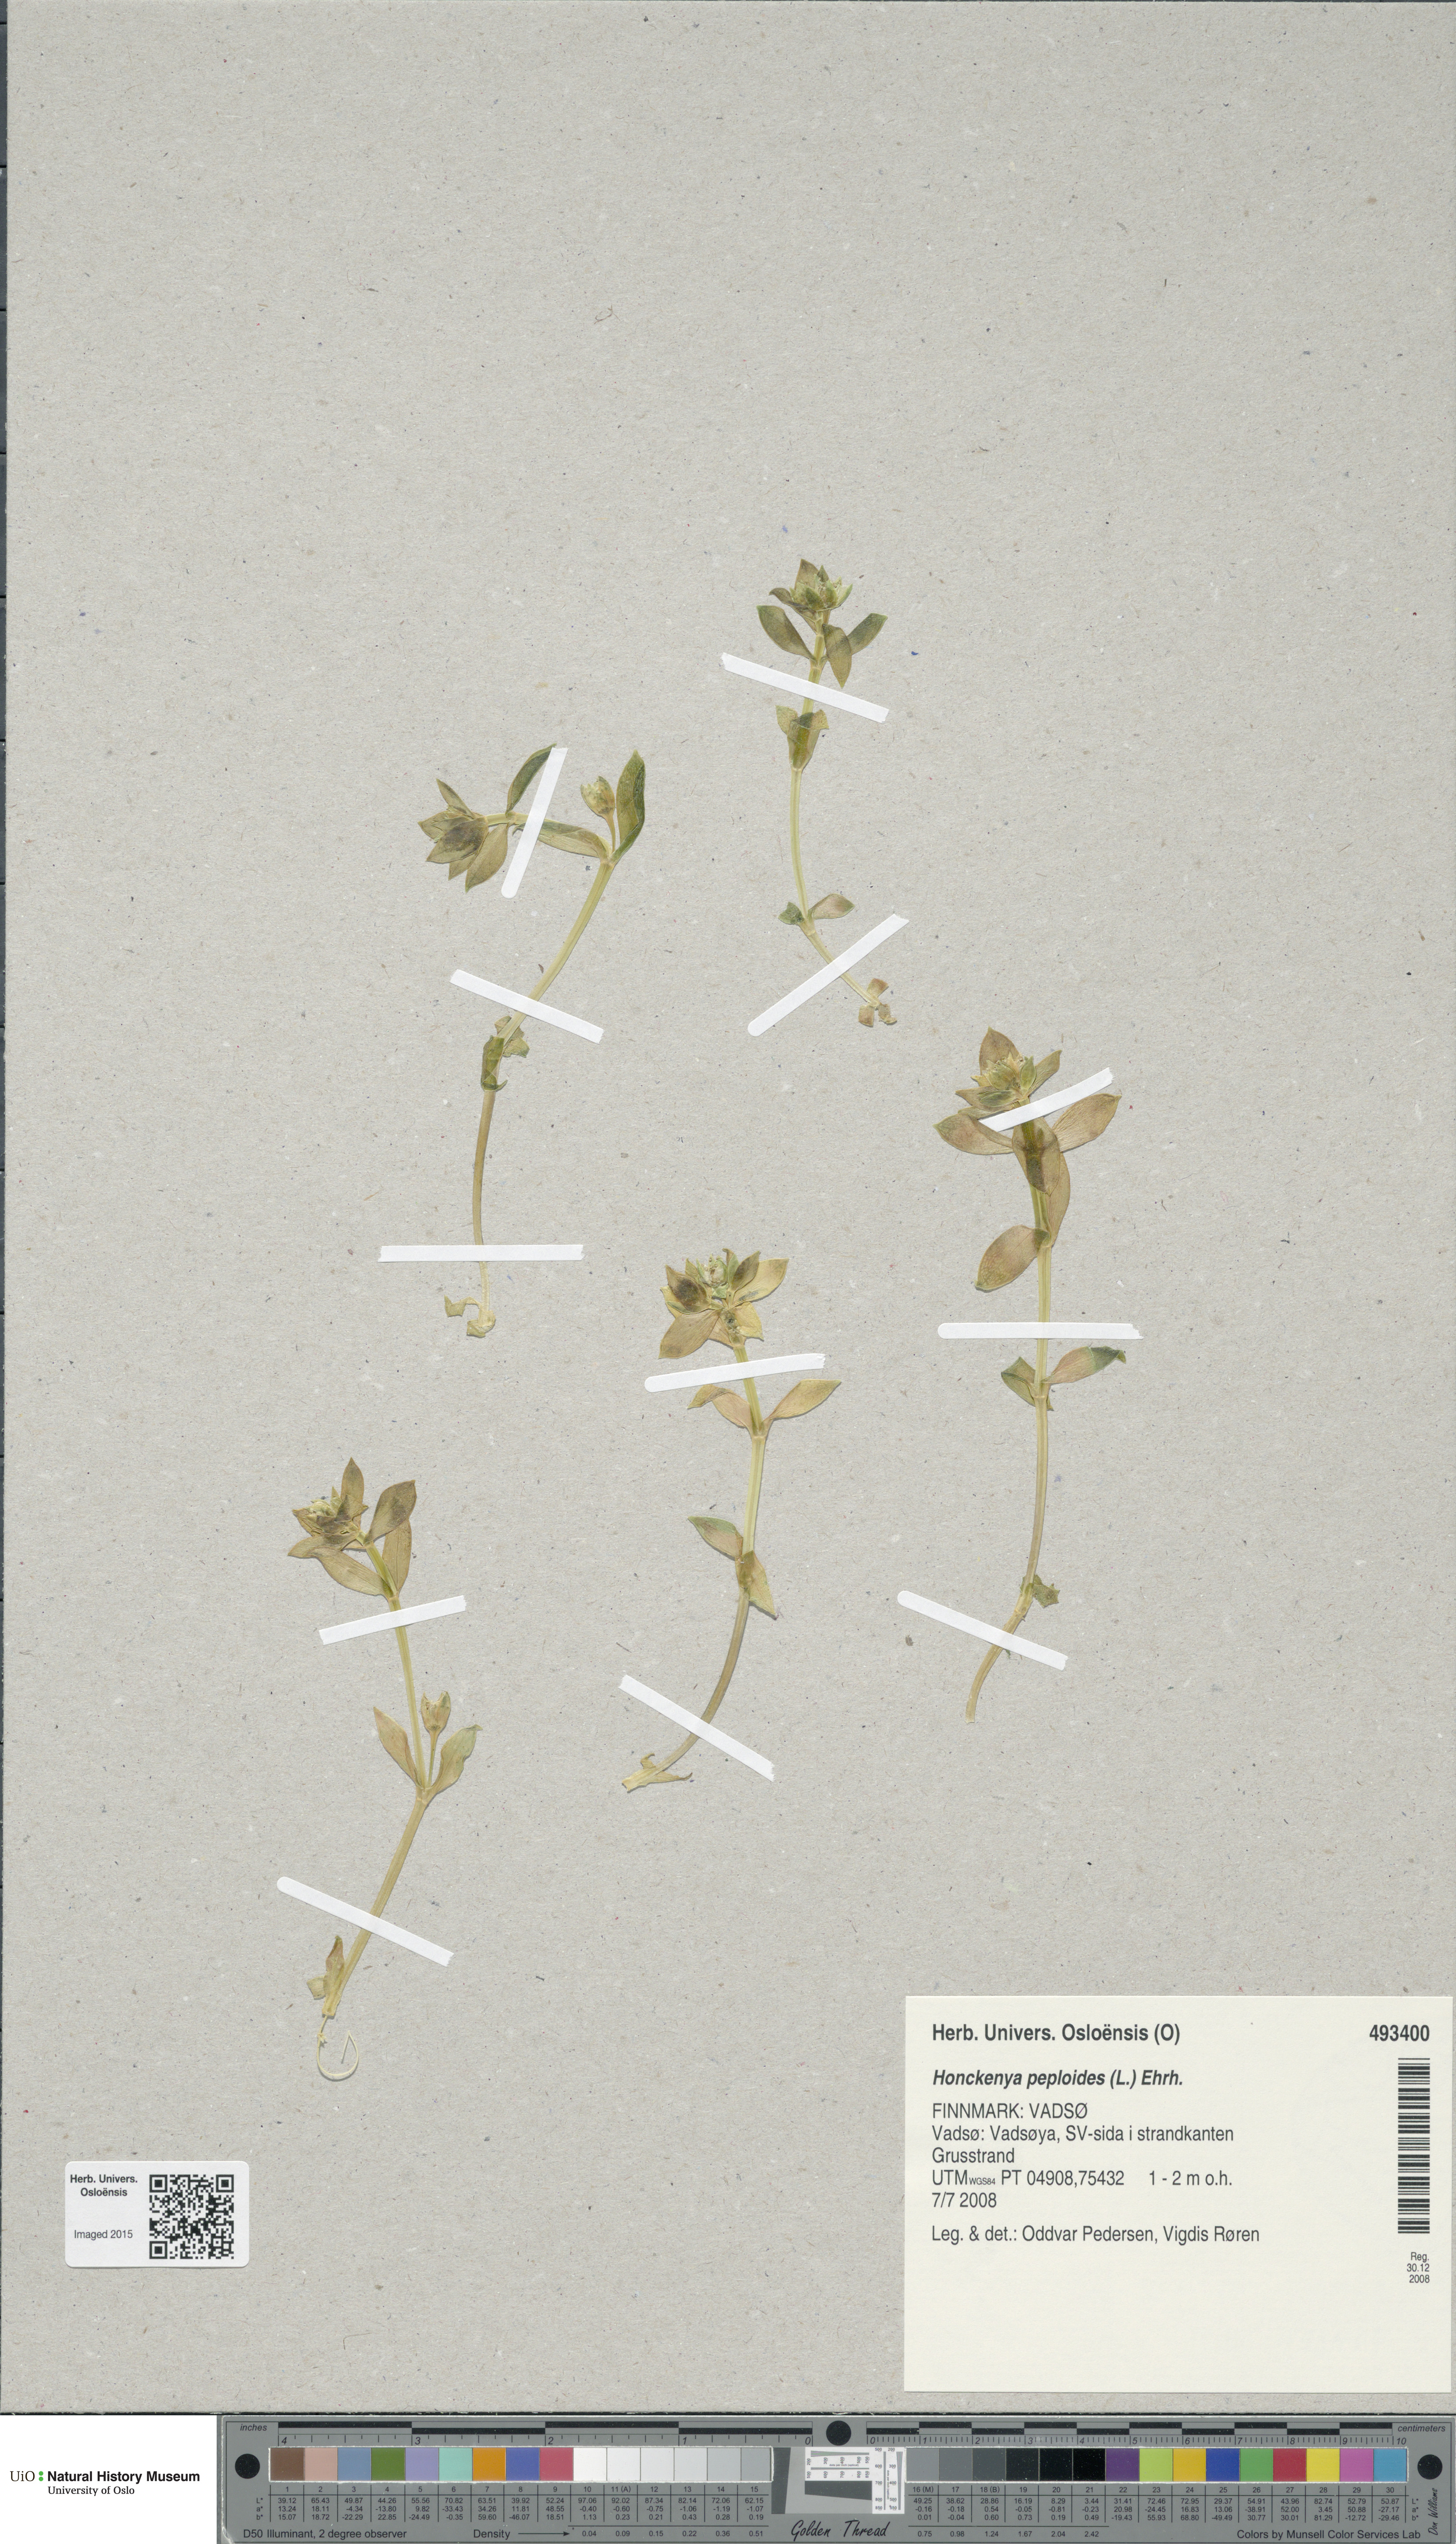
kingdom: Plantae
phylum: Tracheophyta
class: Magnoliopsida
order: Caryophyllales
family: Caryophyllaceae
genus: Honckenya
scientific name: Honckenya peploides
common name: Sea sandwort
